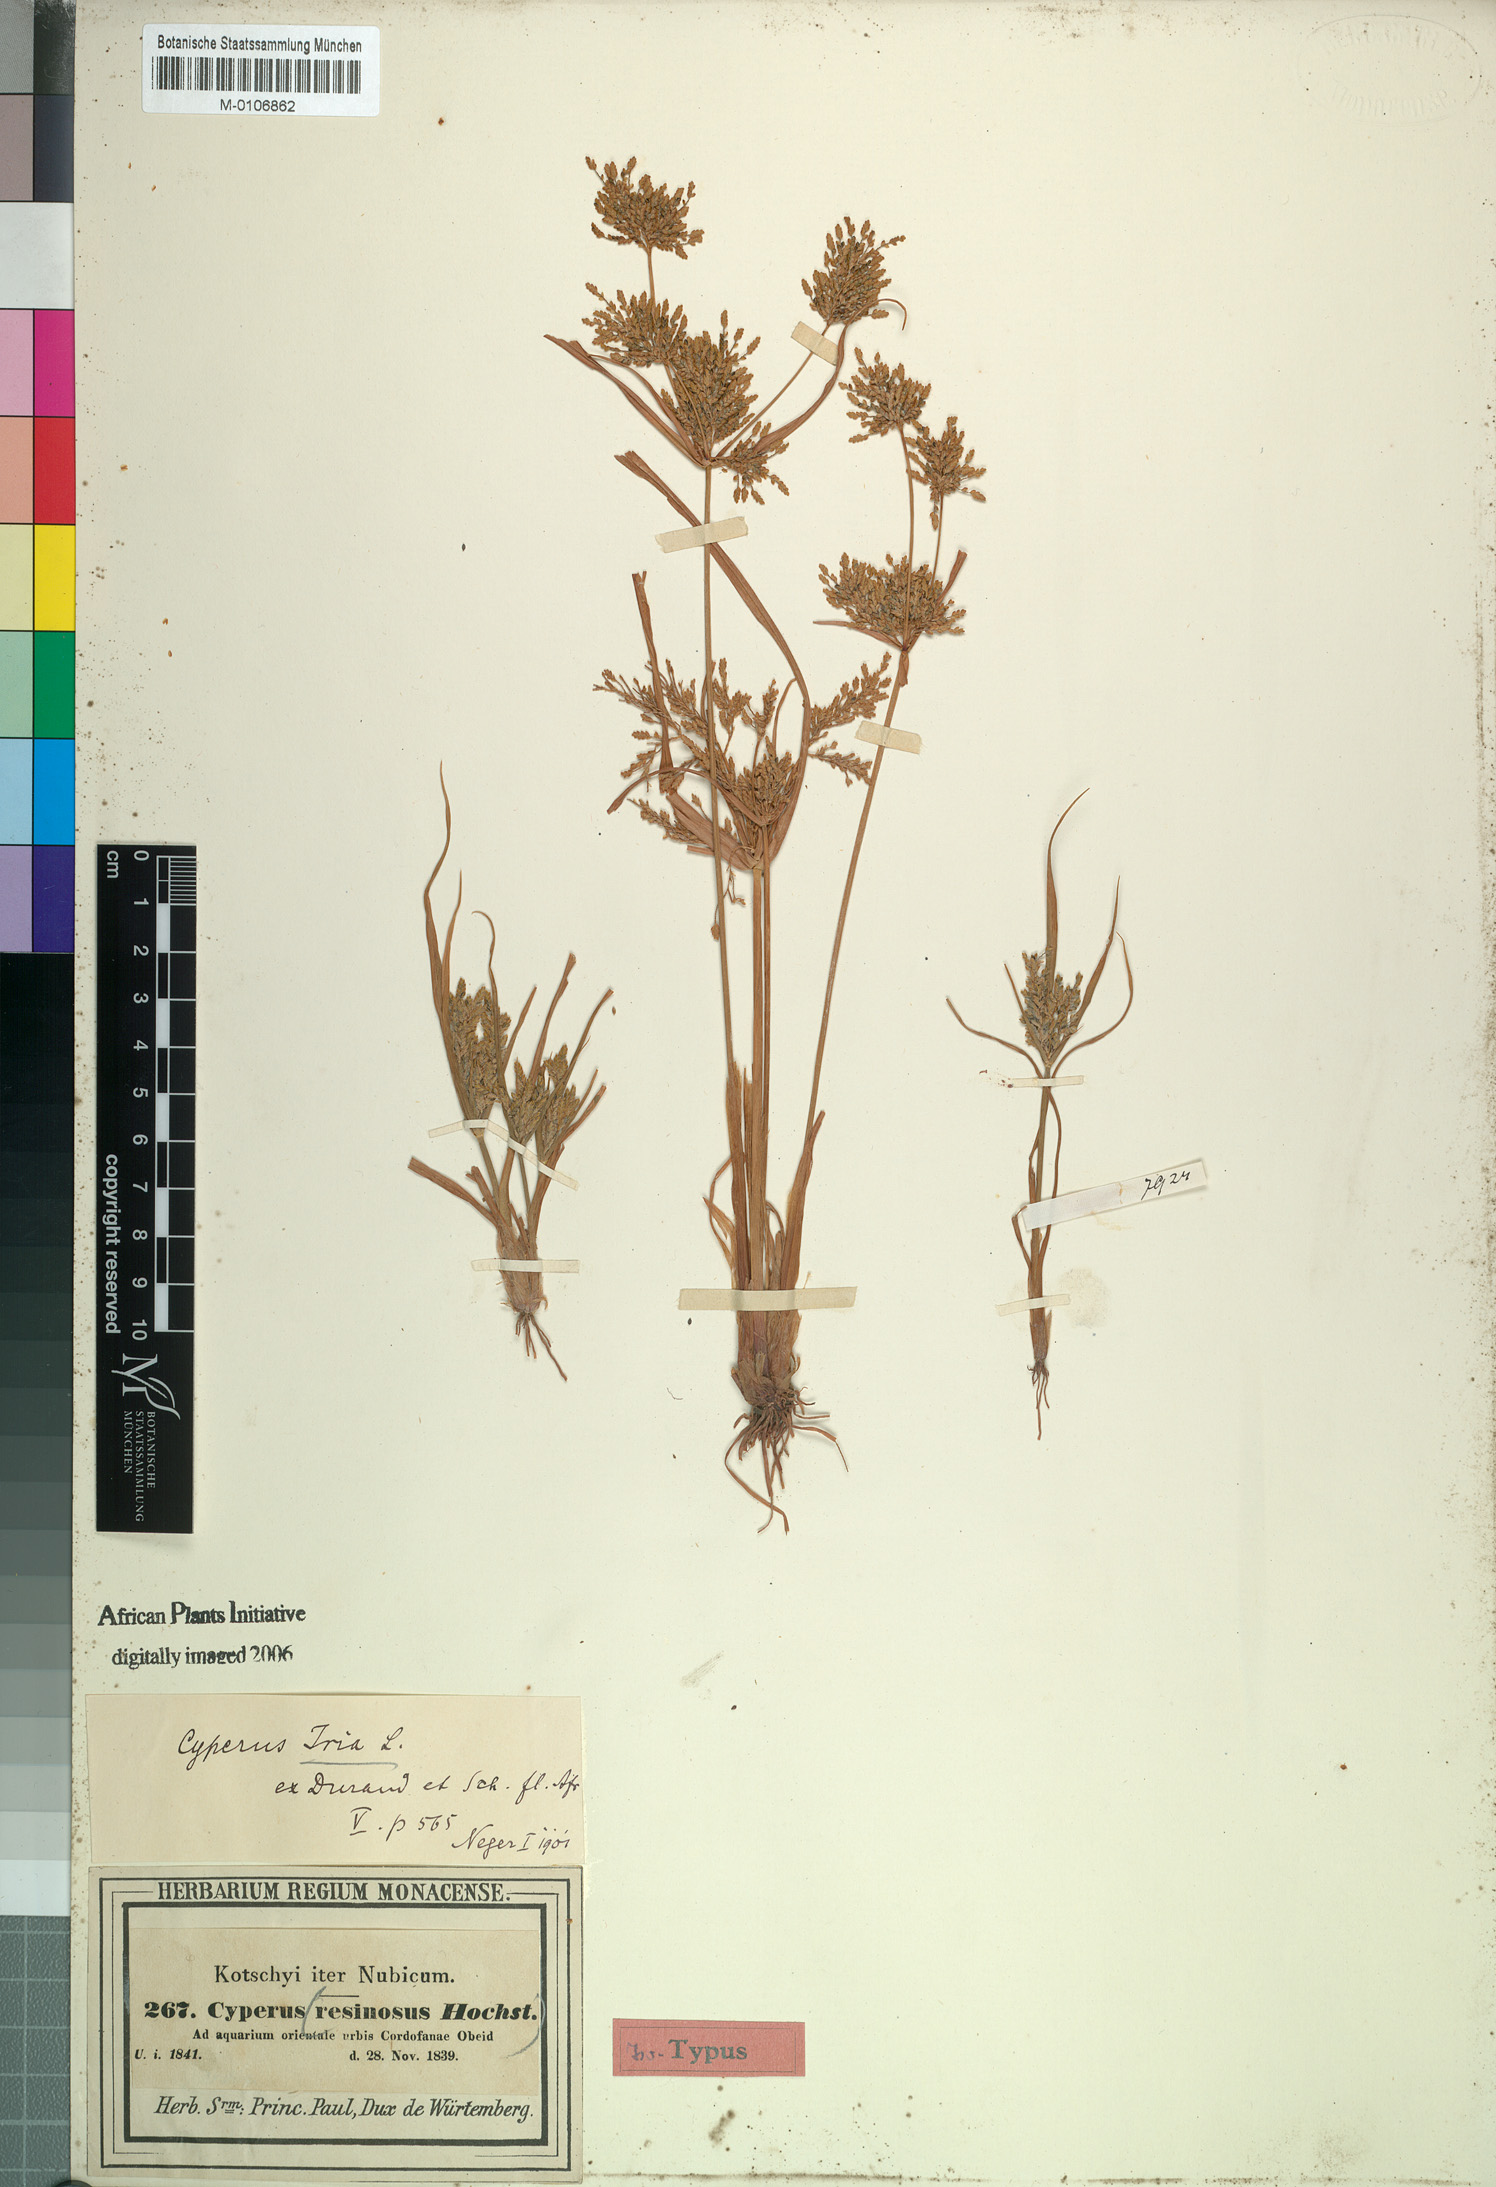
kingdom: Plantae
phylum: Tracheophyta
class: Liliopsida
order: Poales
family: Cyperaceae
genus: Cyperus
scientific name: Cyperus iria
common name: Ricefield flatsedge
